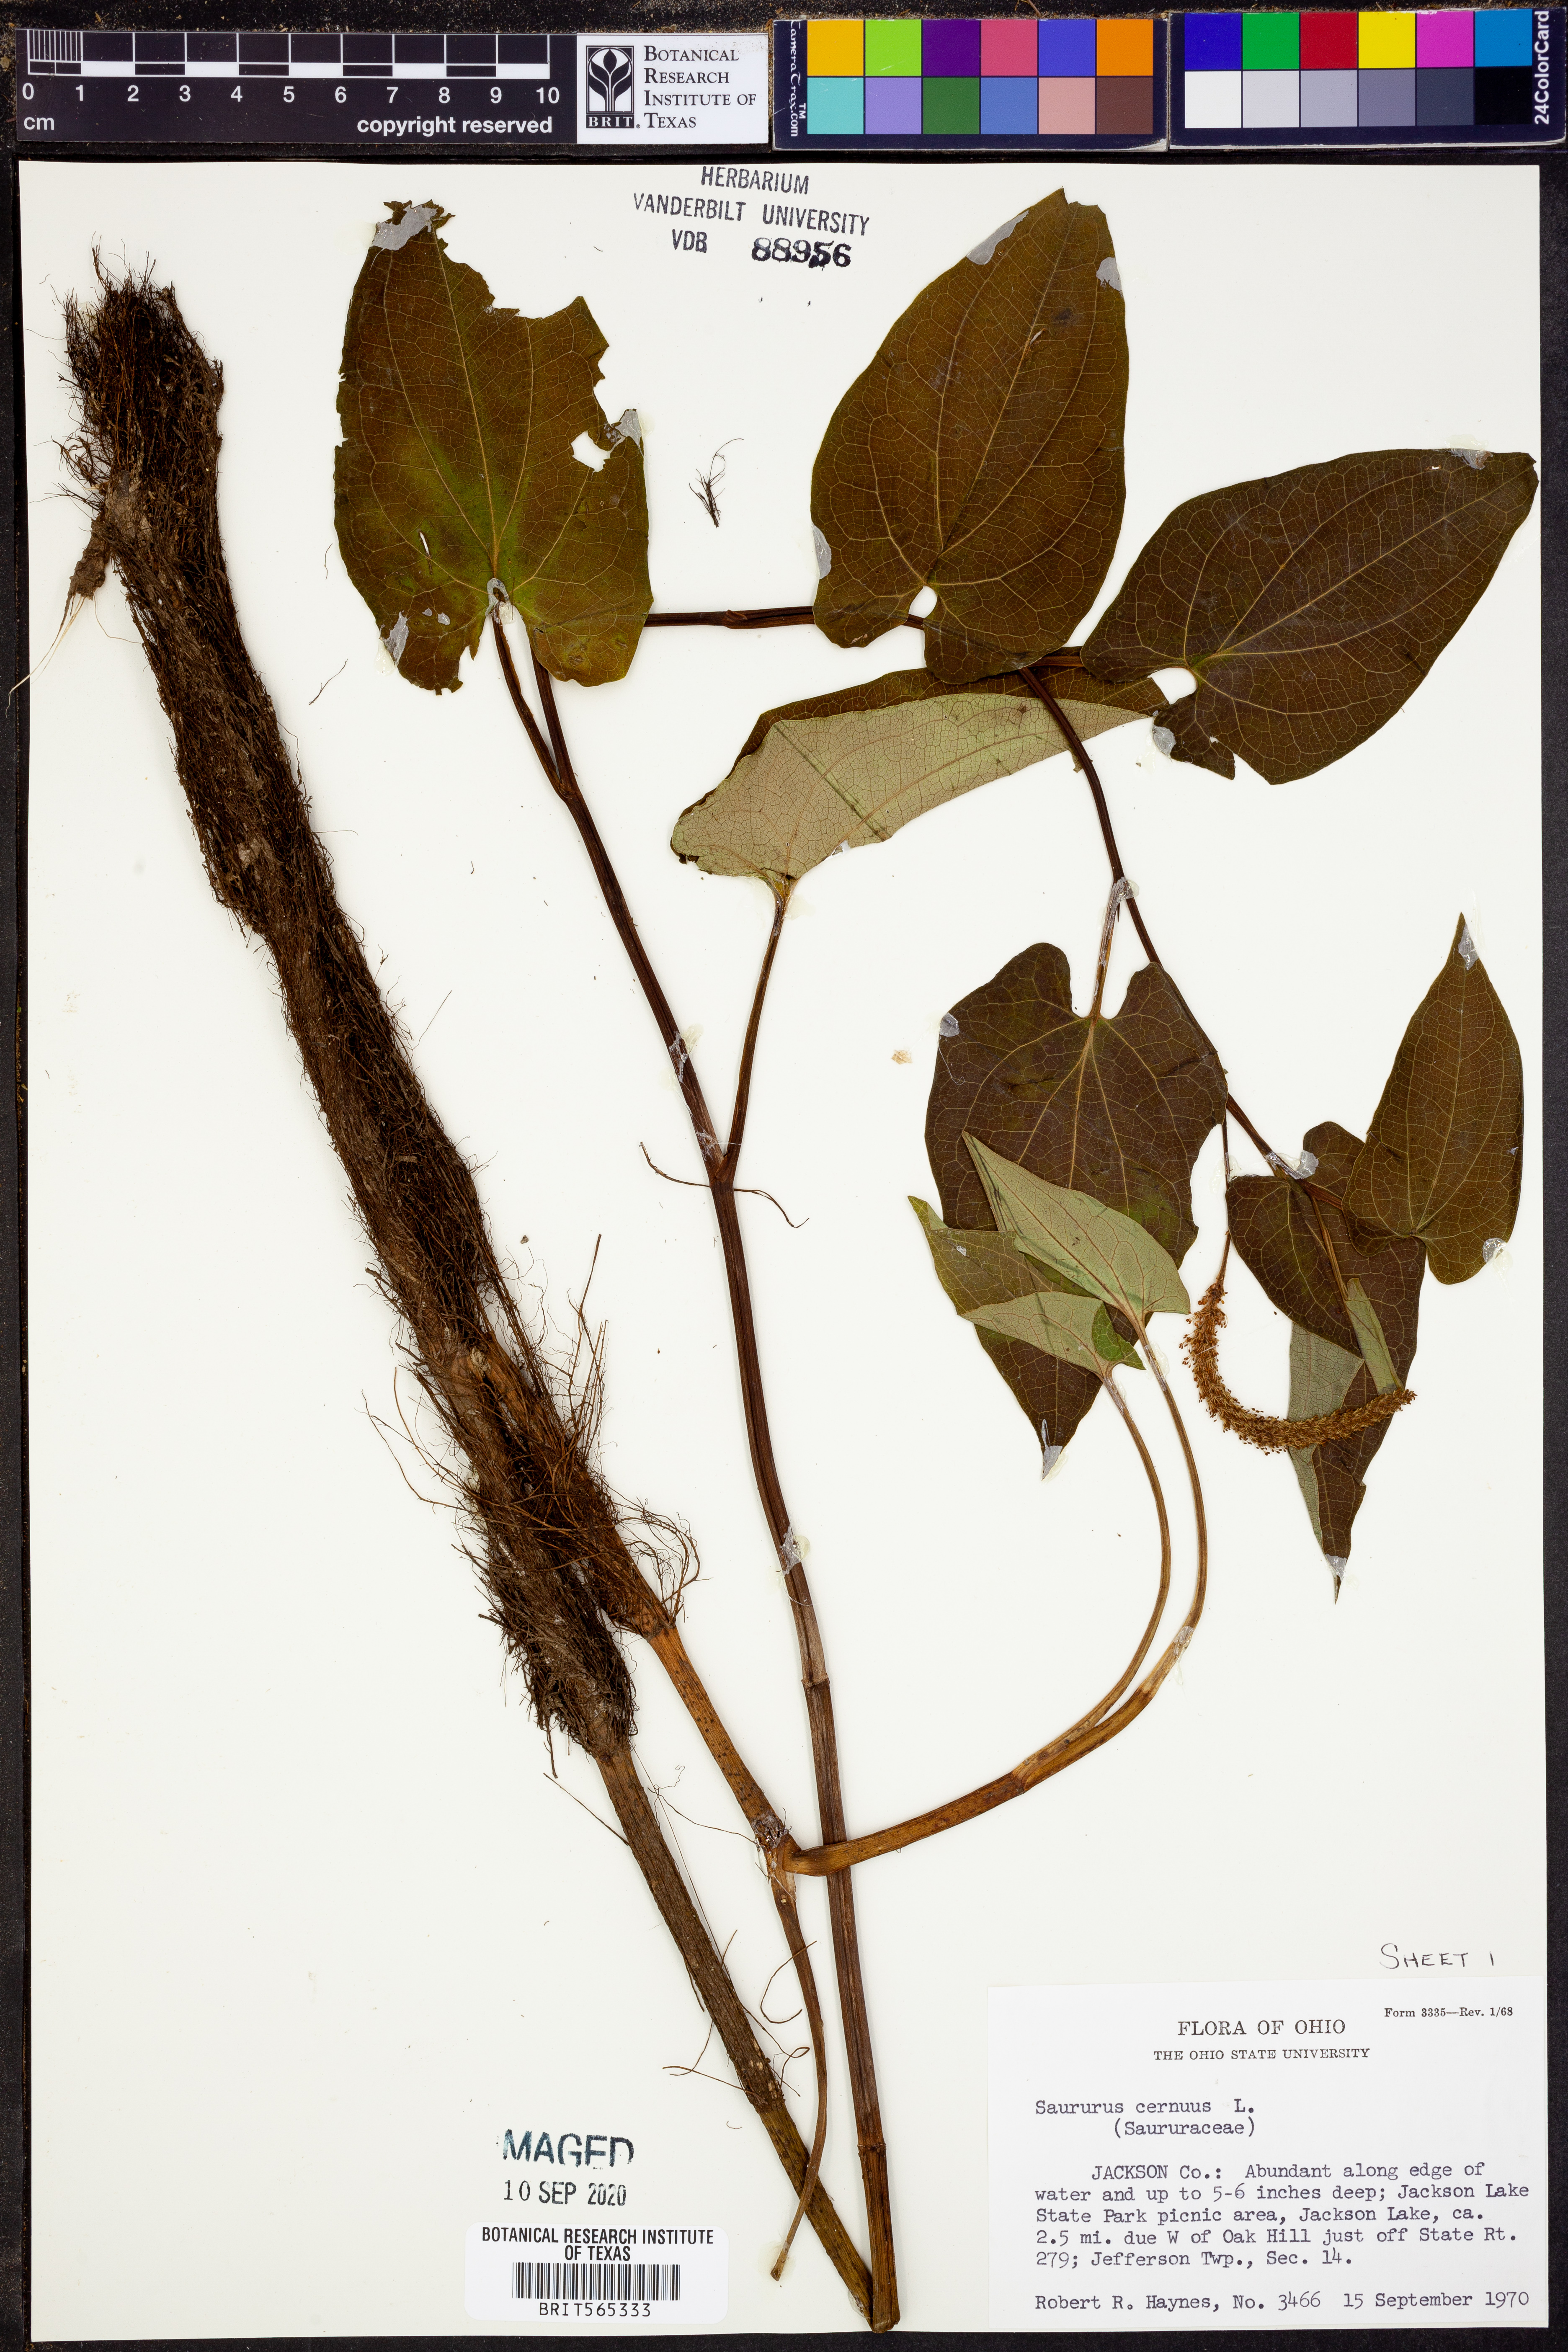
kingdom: Plantae
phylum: Tracheophyta
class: Magnoliopsida
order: Piperales
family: Saururaceae
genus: Saururus
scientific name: Saururus cernuus
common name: Lizard's-tail
